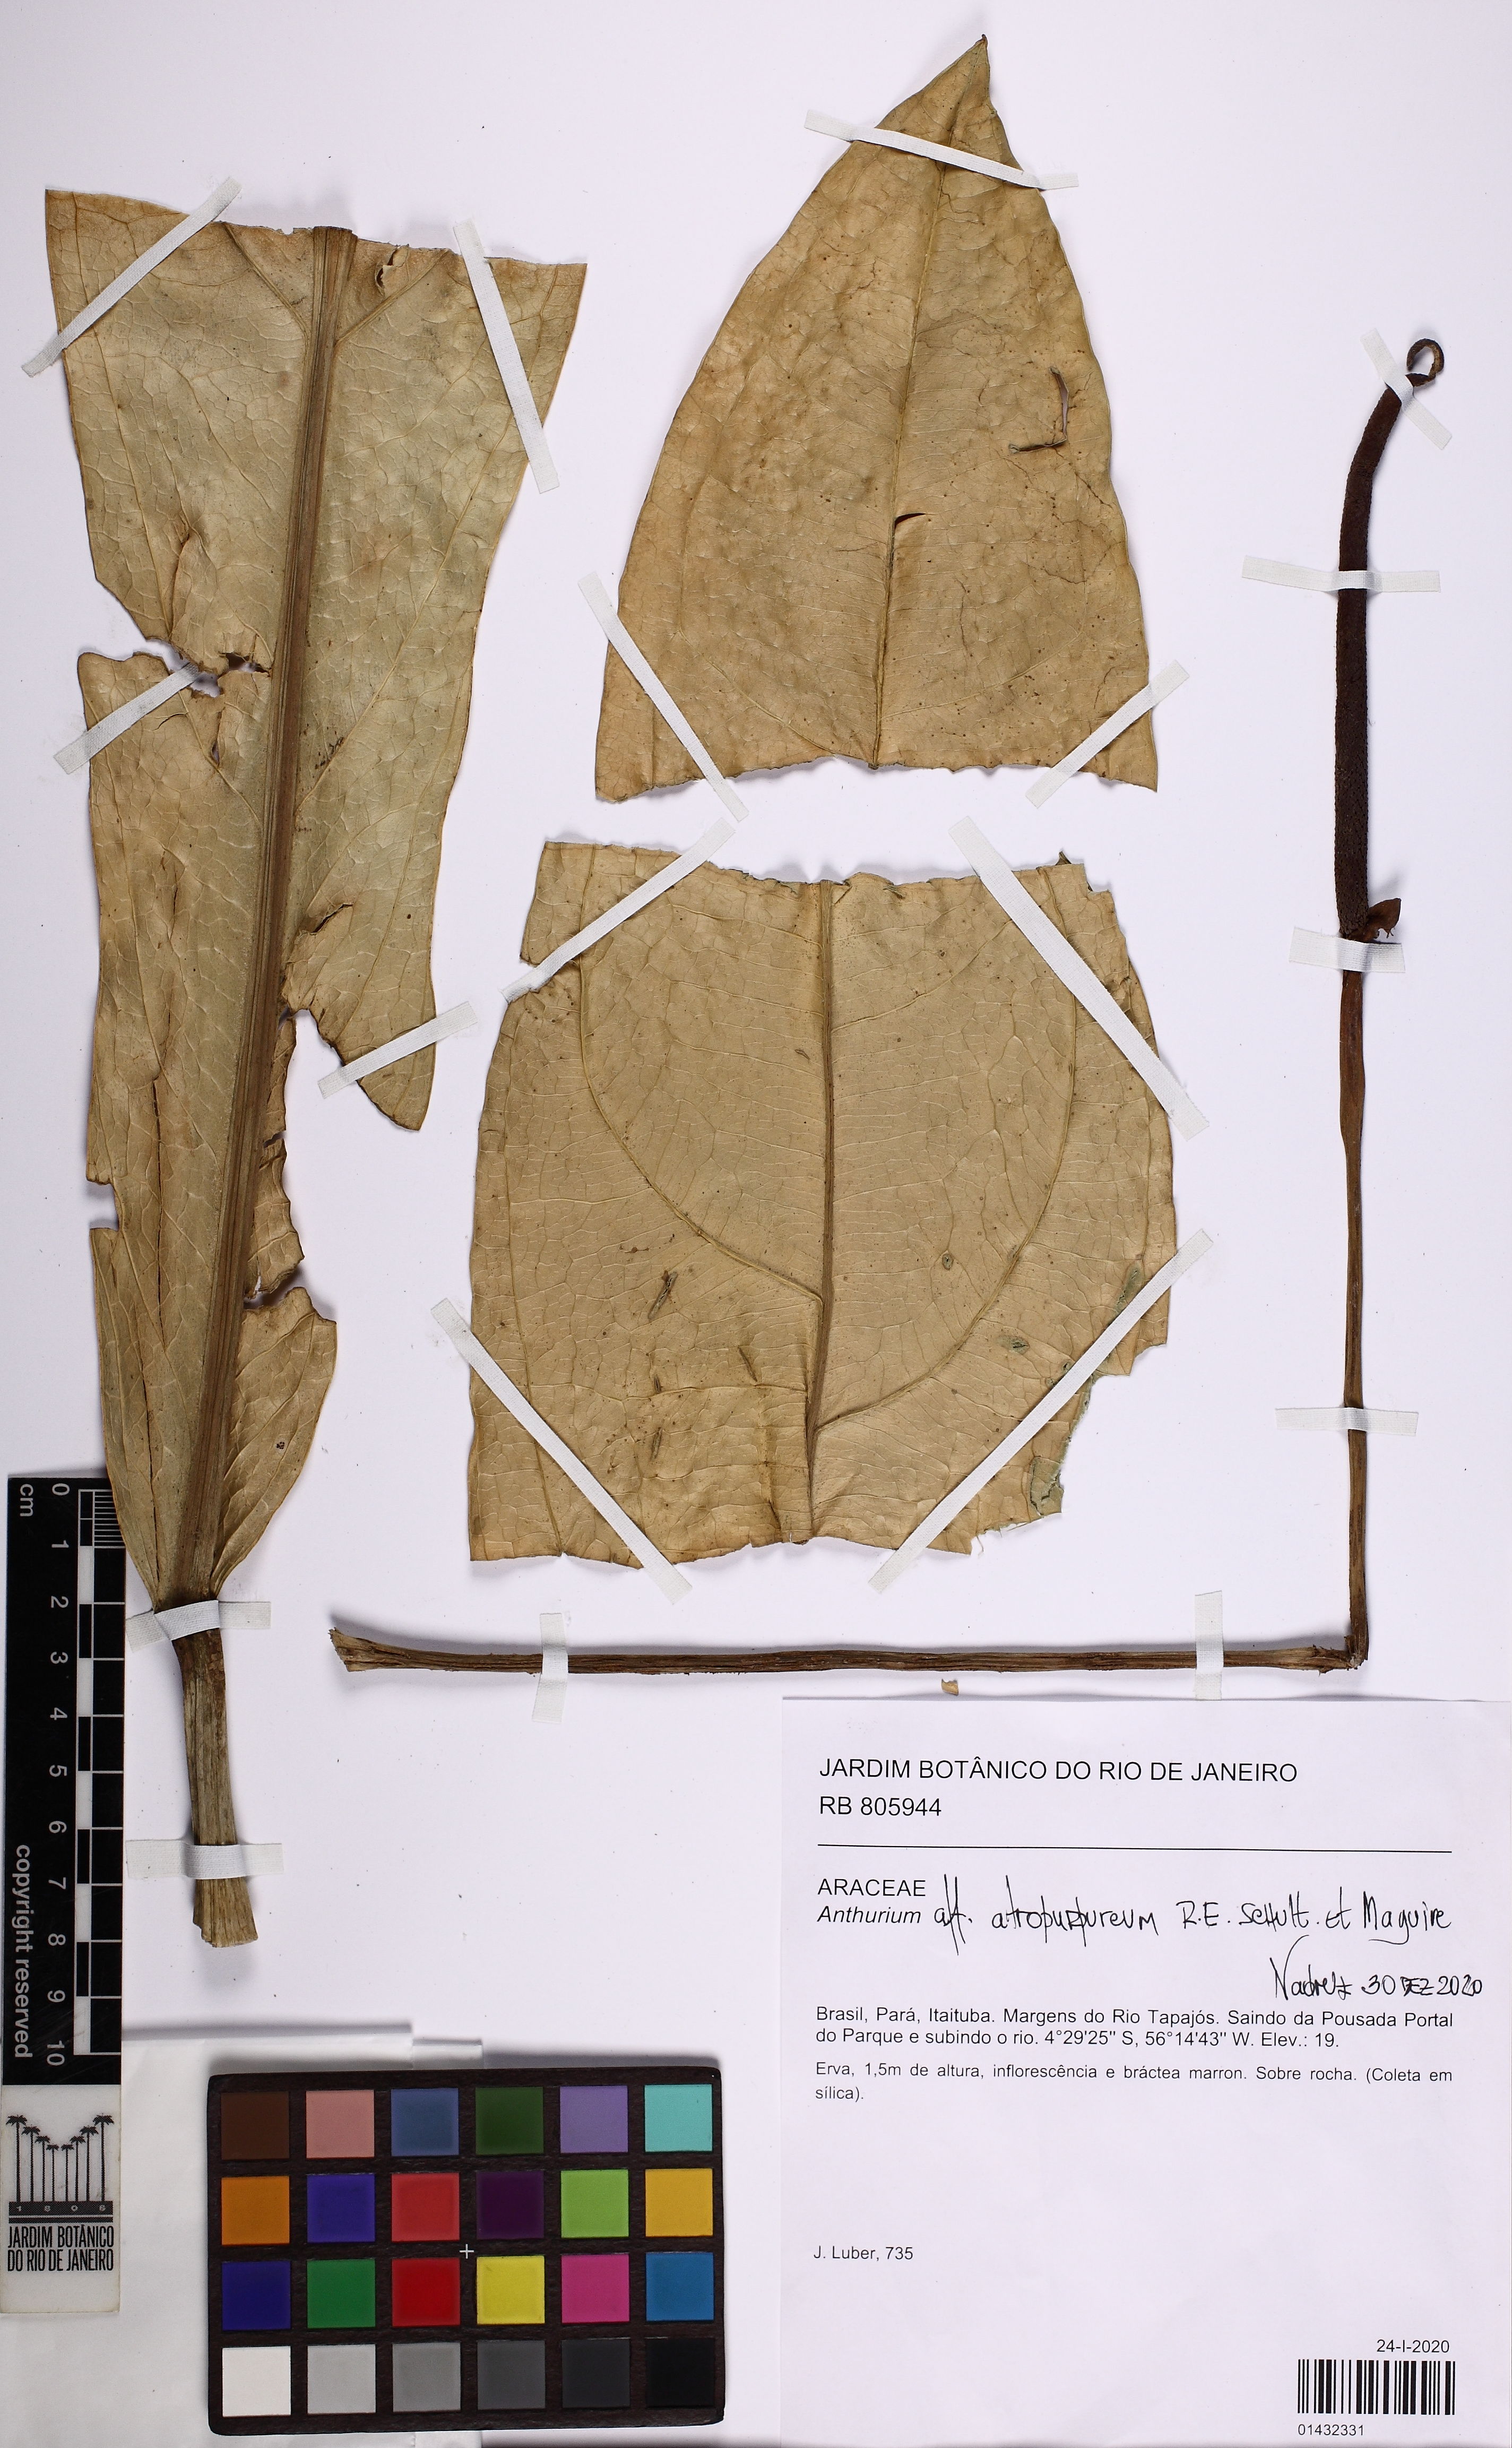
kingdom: Plantae
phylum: Tracheophyta
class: Liliopsida
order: Alismatales
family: Araceae
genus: Anthurium
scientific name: Anthurium
